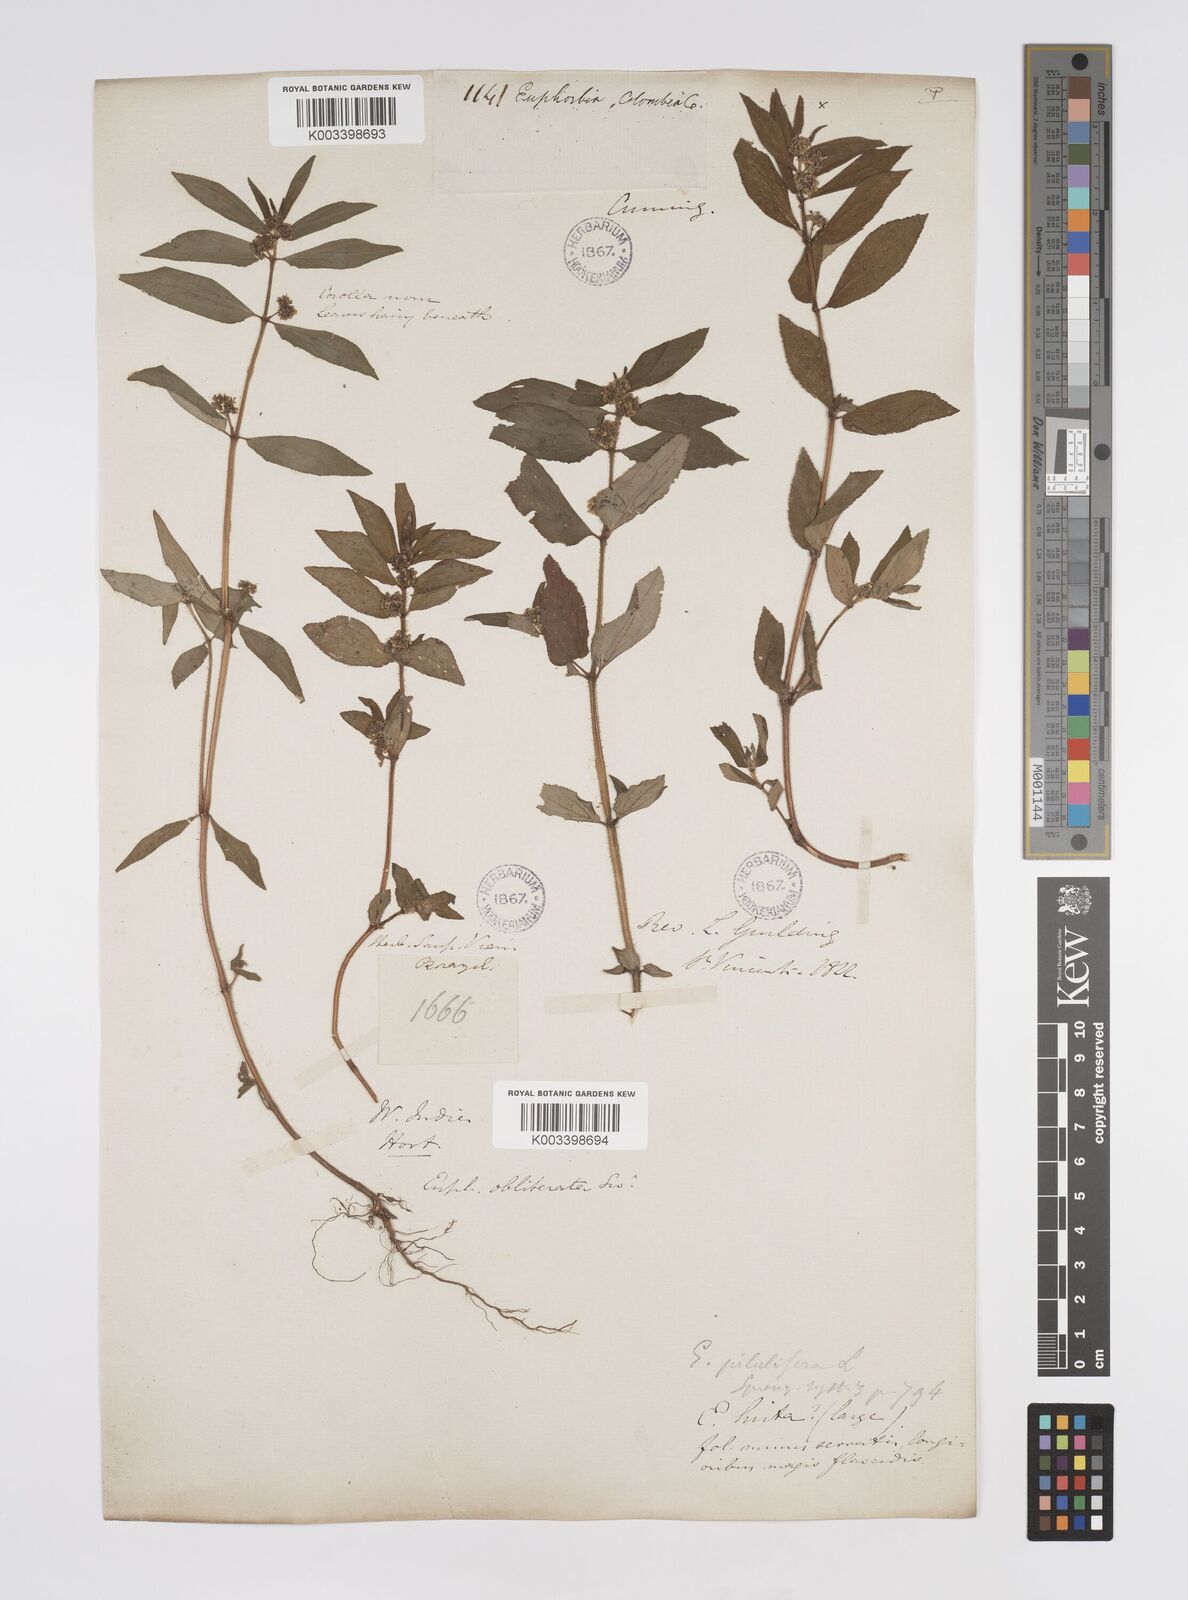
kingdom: Plantae
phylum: Tracheophyta
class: Magnoliopsida
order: Malpighiales
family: Euphorbiaceae
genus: Euphorbia
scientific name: Euphorbia hirta
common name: Pillpod sandmat
